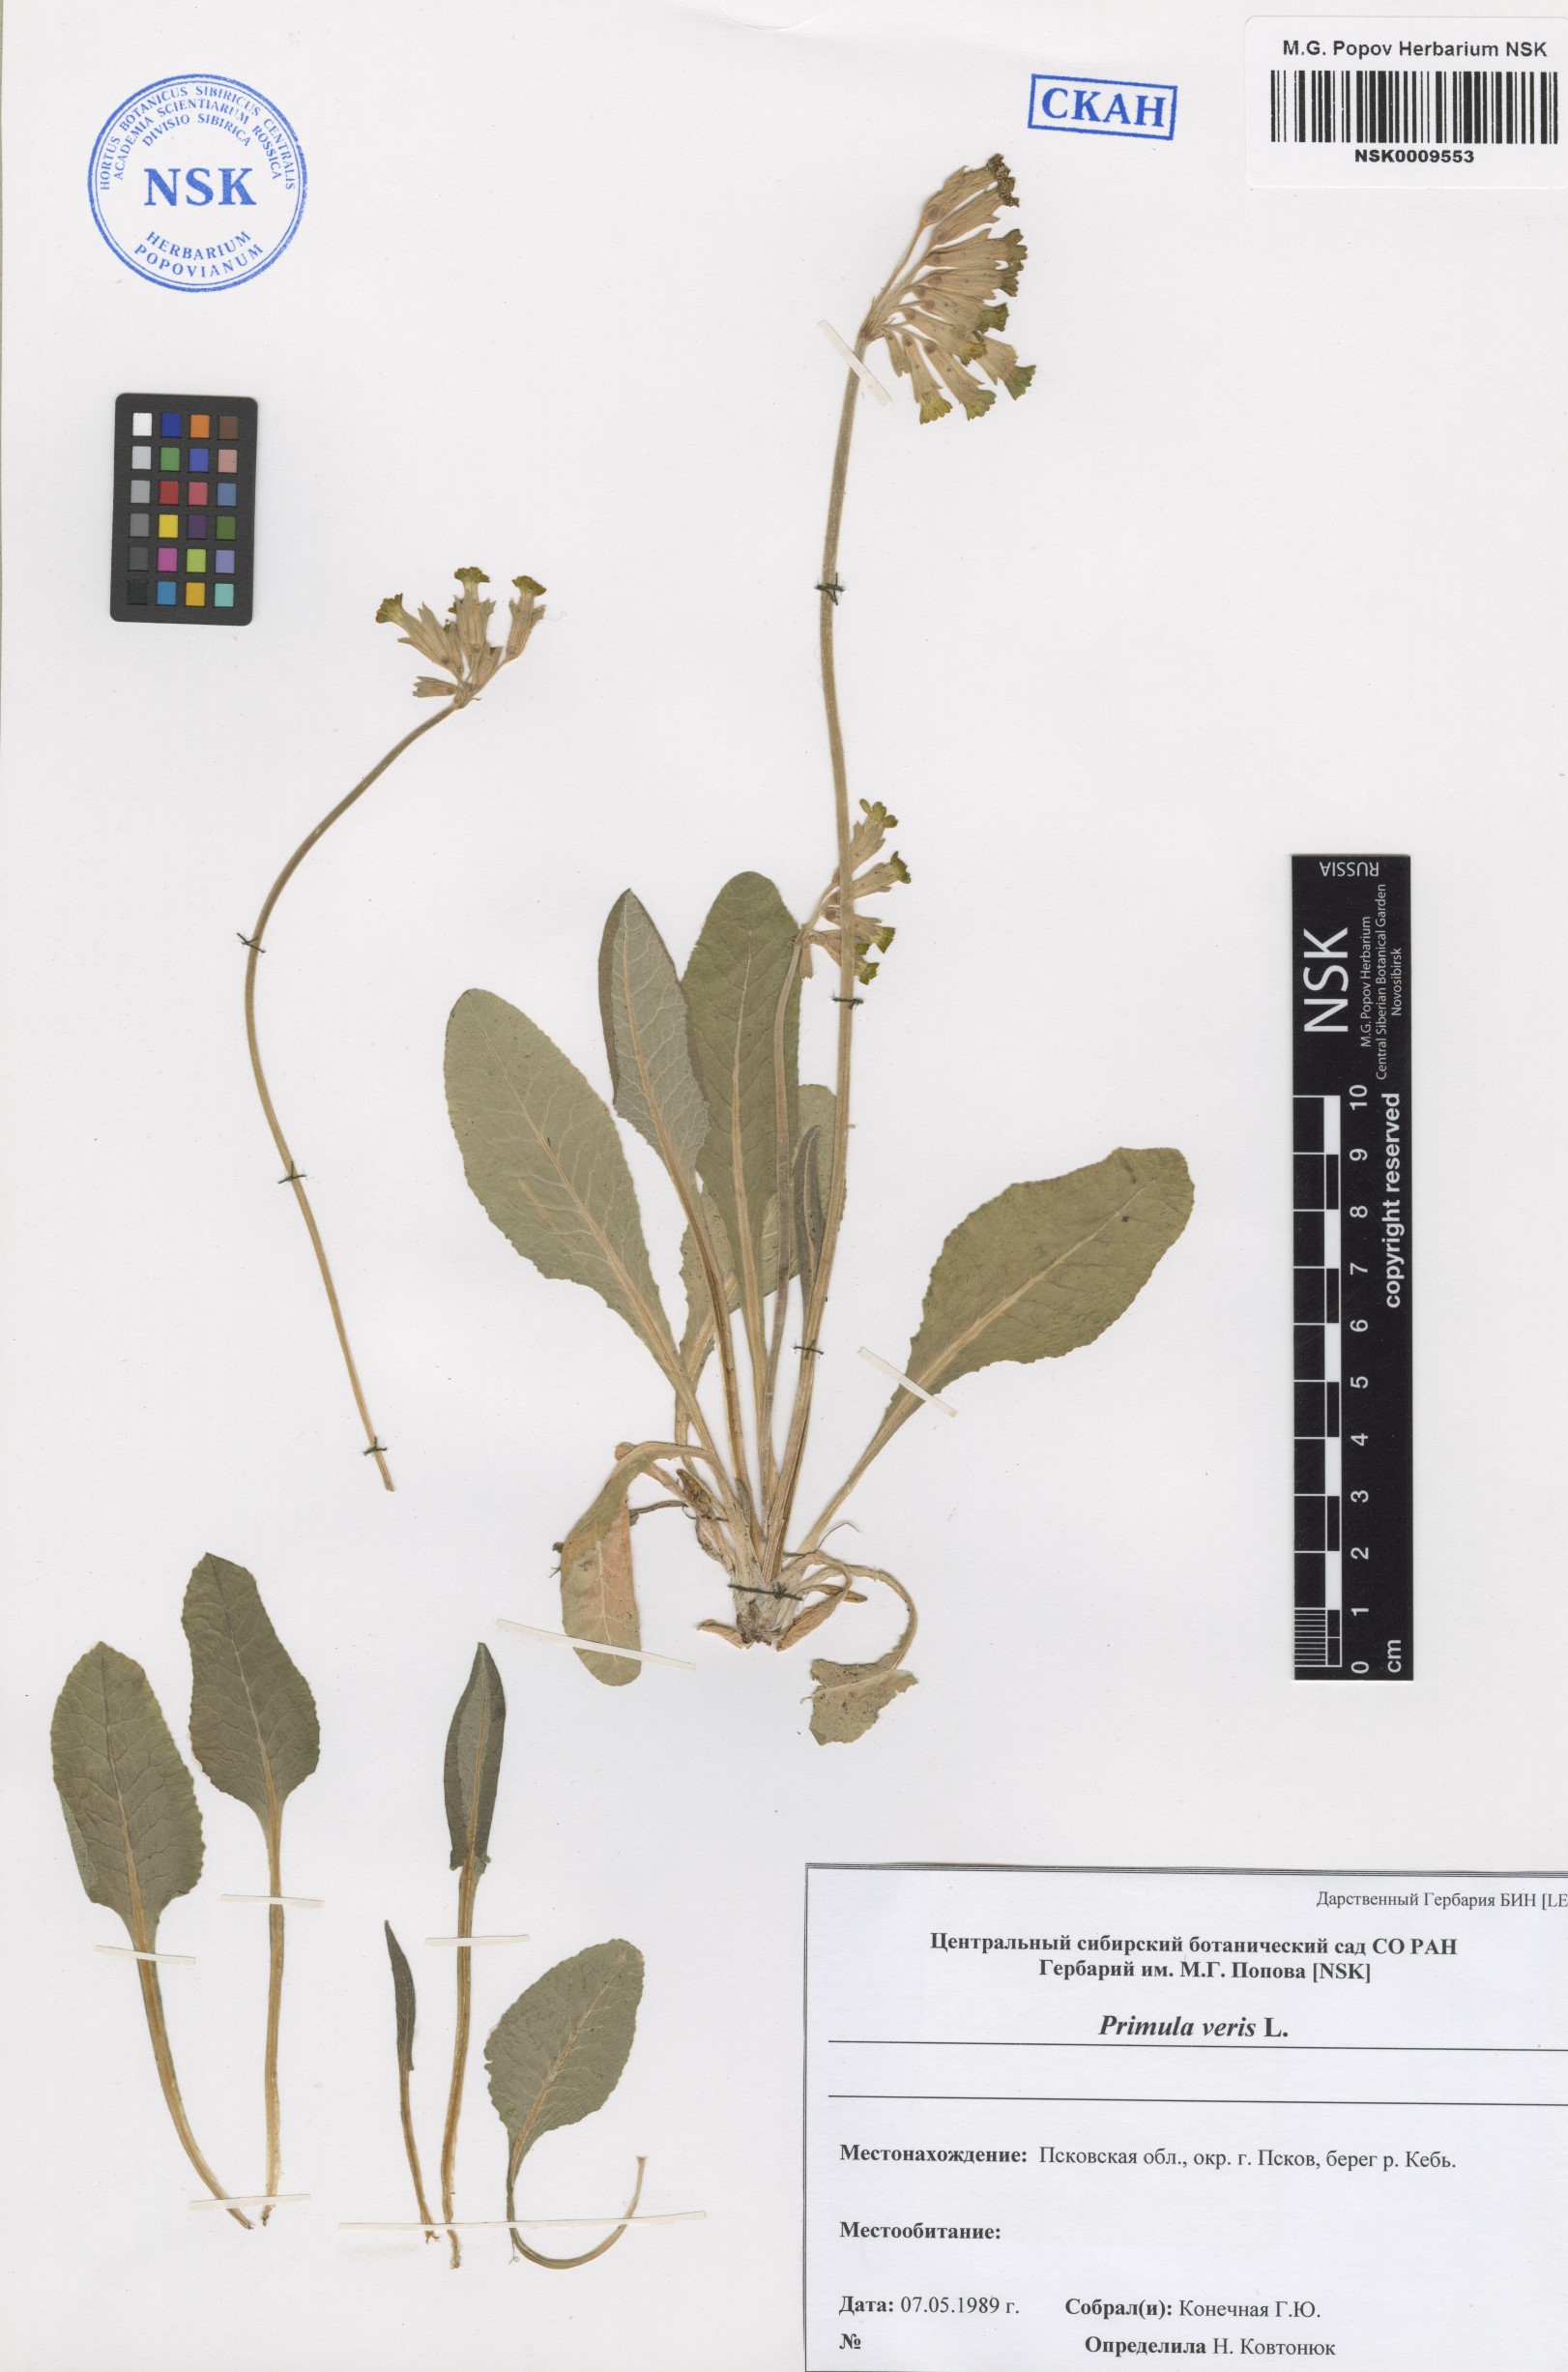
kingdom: Plantae
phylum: Tracheophyta
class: Magnoliopsida
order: Ericales
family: Primulaceae
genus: Primula
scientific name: Primula veris
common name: Cowslip
